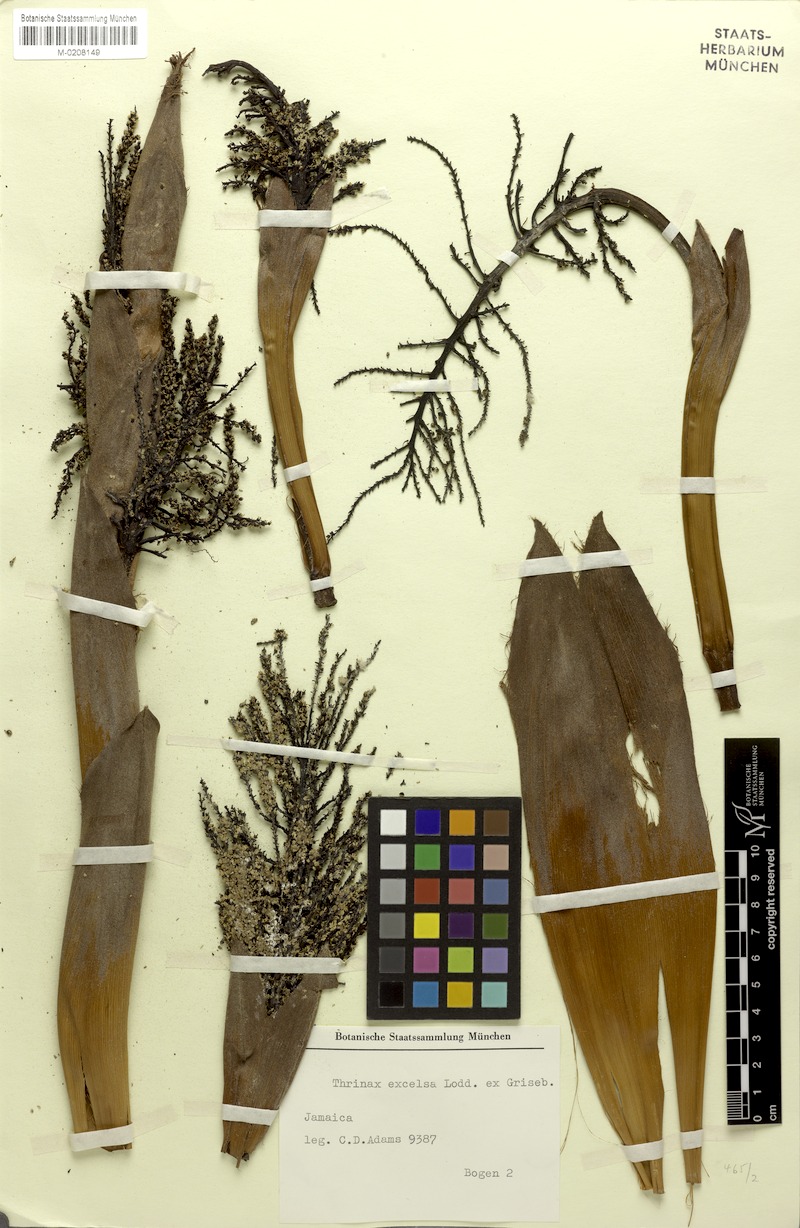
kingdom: Plantae
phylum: Tracheophyta
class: Liliopsida
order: Arecales
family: Arecaceae
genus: Thrinax
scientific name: Thrinax excelsa
